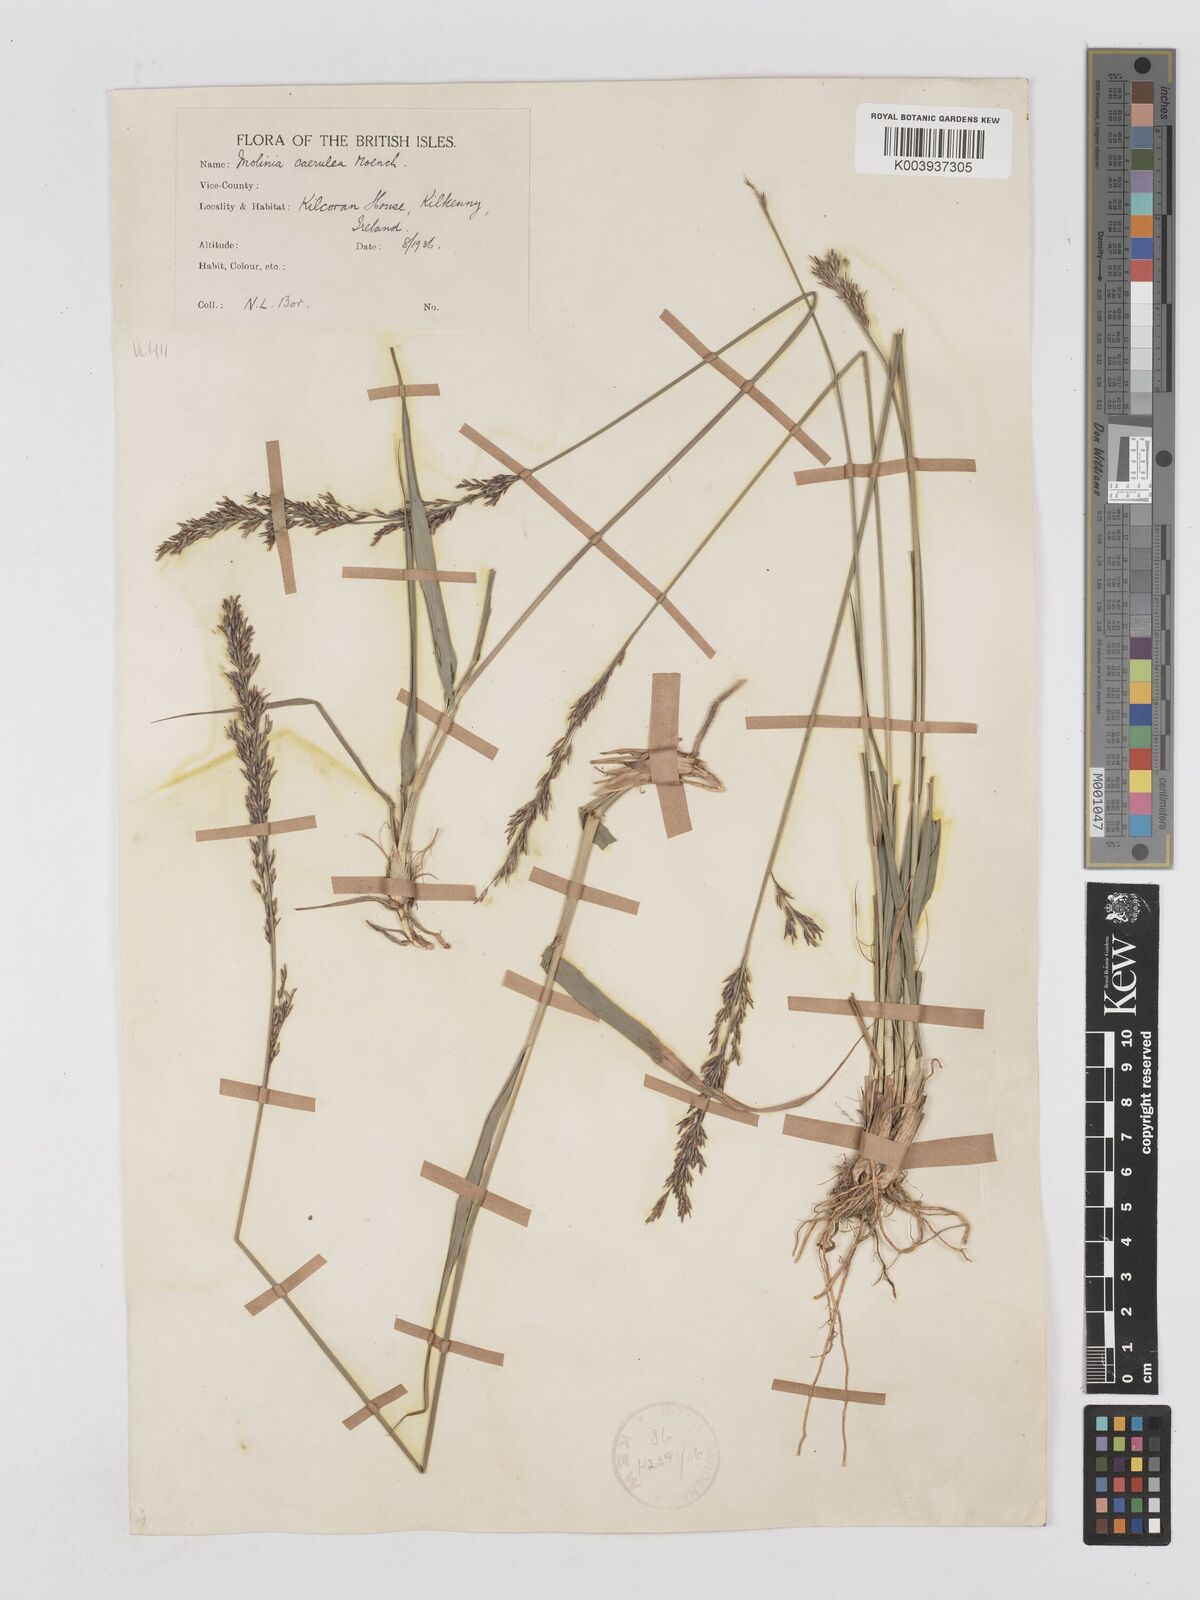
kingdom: Plantae
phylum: Tracheophyta
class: Liliopsida
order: Poales
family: Poaceae
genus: Molinia
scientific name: Molinia caerulea
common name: Purple moor-grass
